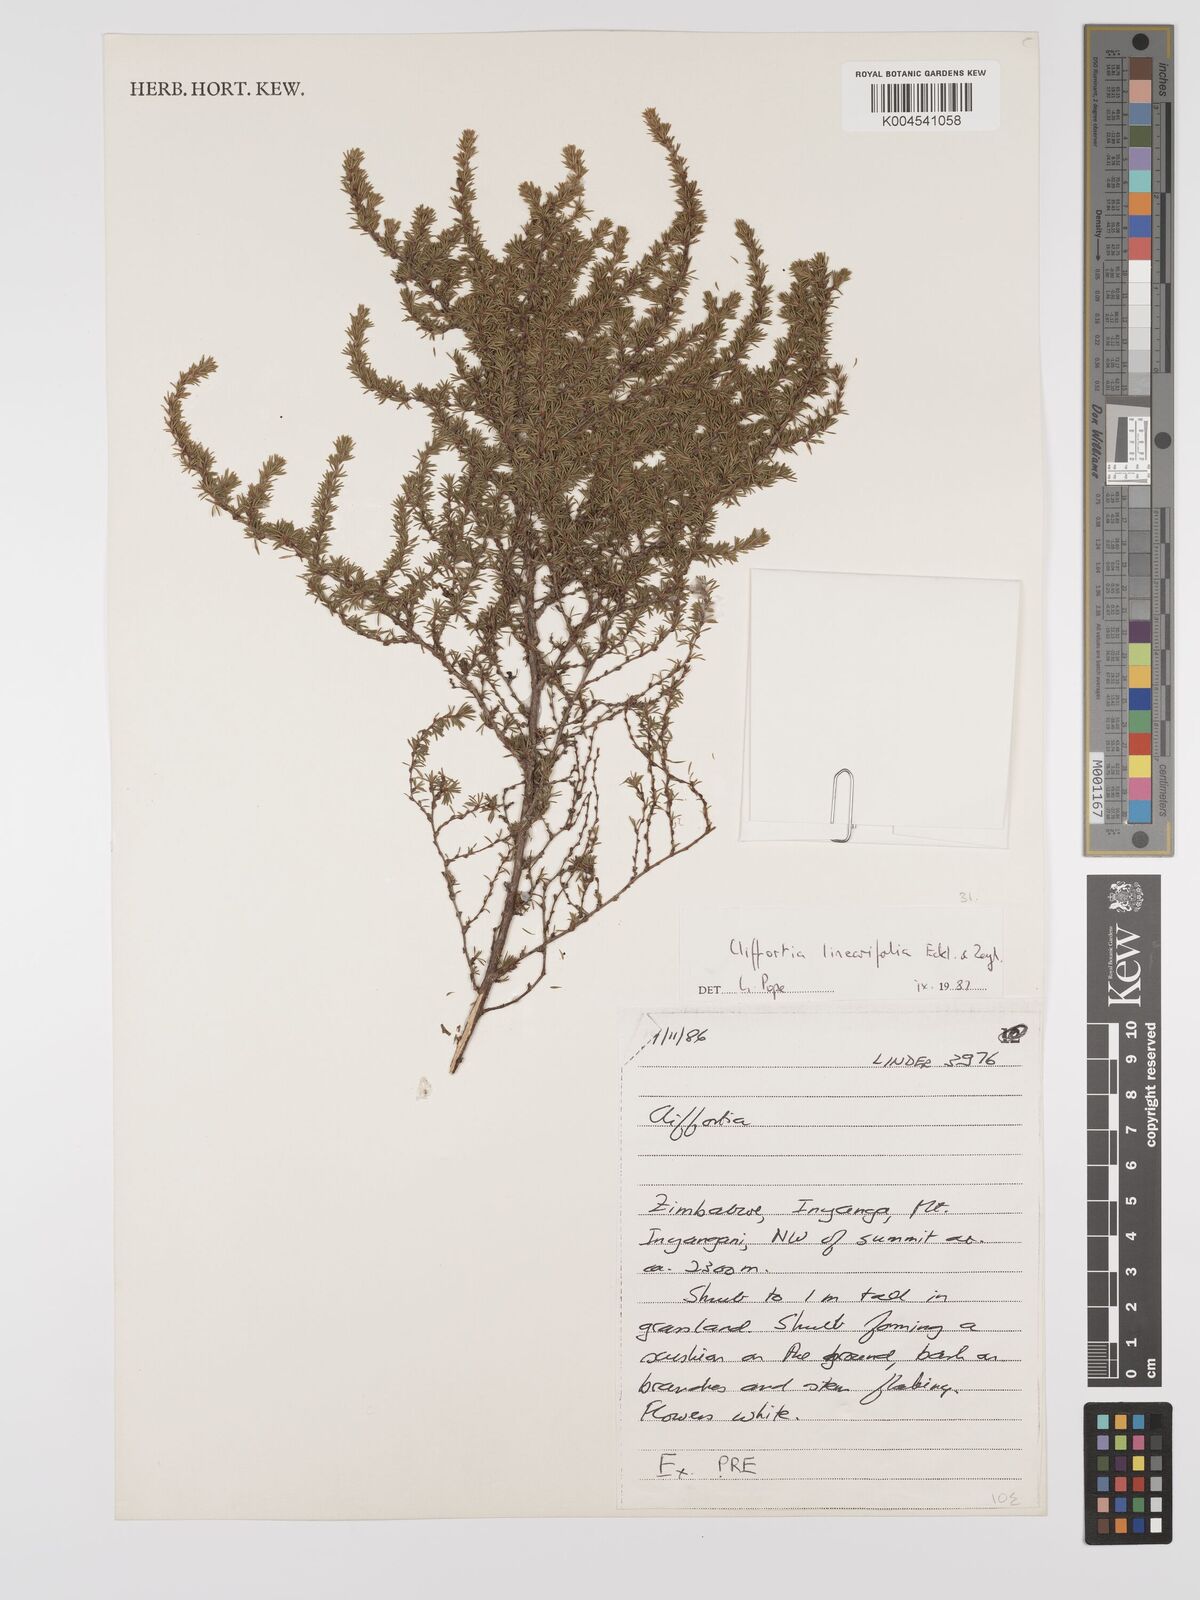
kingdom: Plantae
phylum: Tracheophyta
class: Magnoliopsida
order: Rosales
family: Rosaceae
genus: Cliffortia
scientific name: Cliffortia linearifolia
